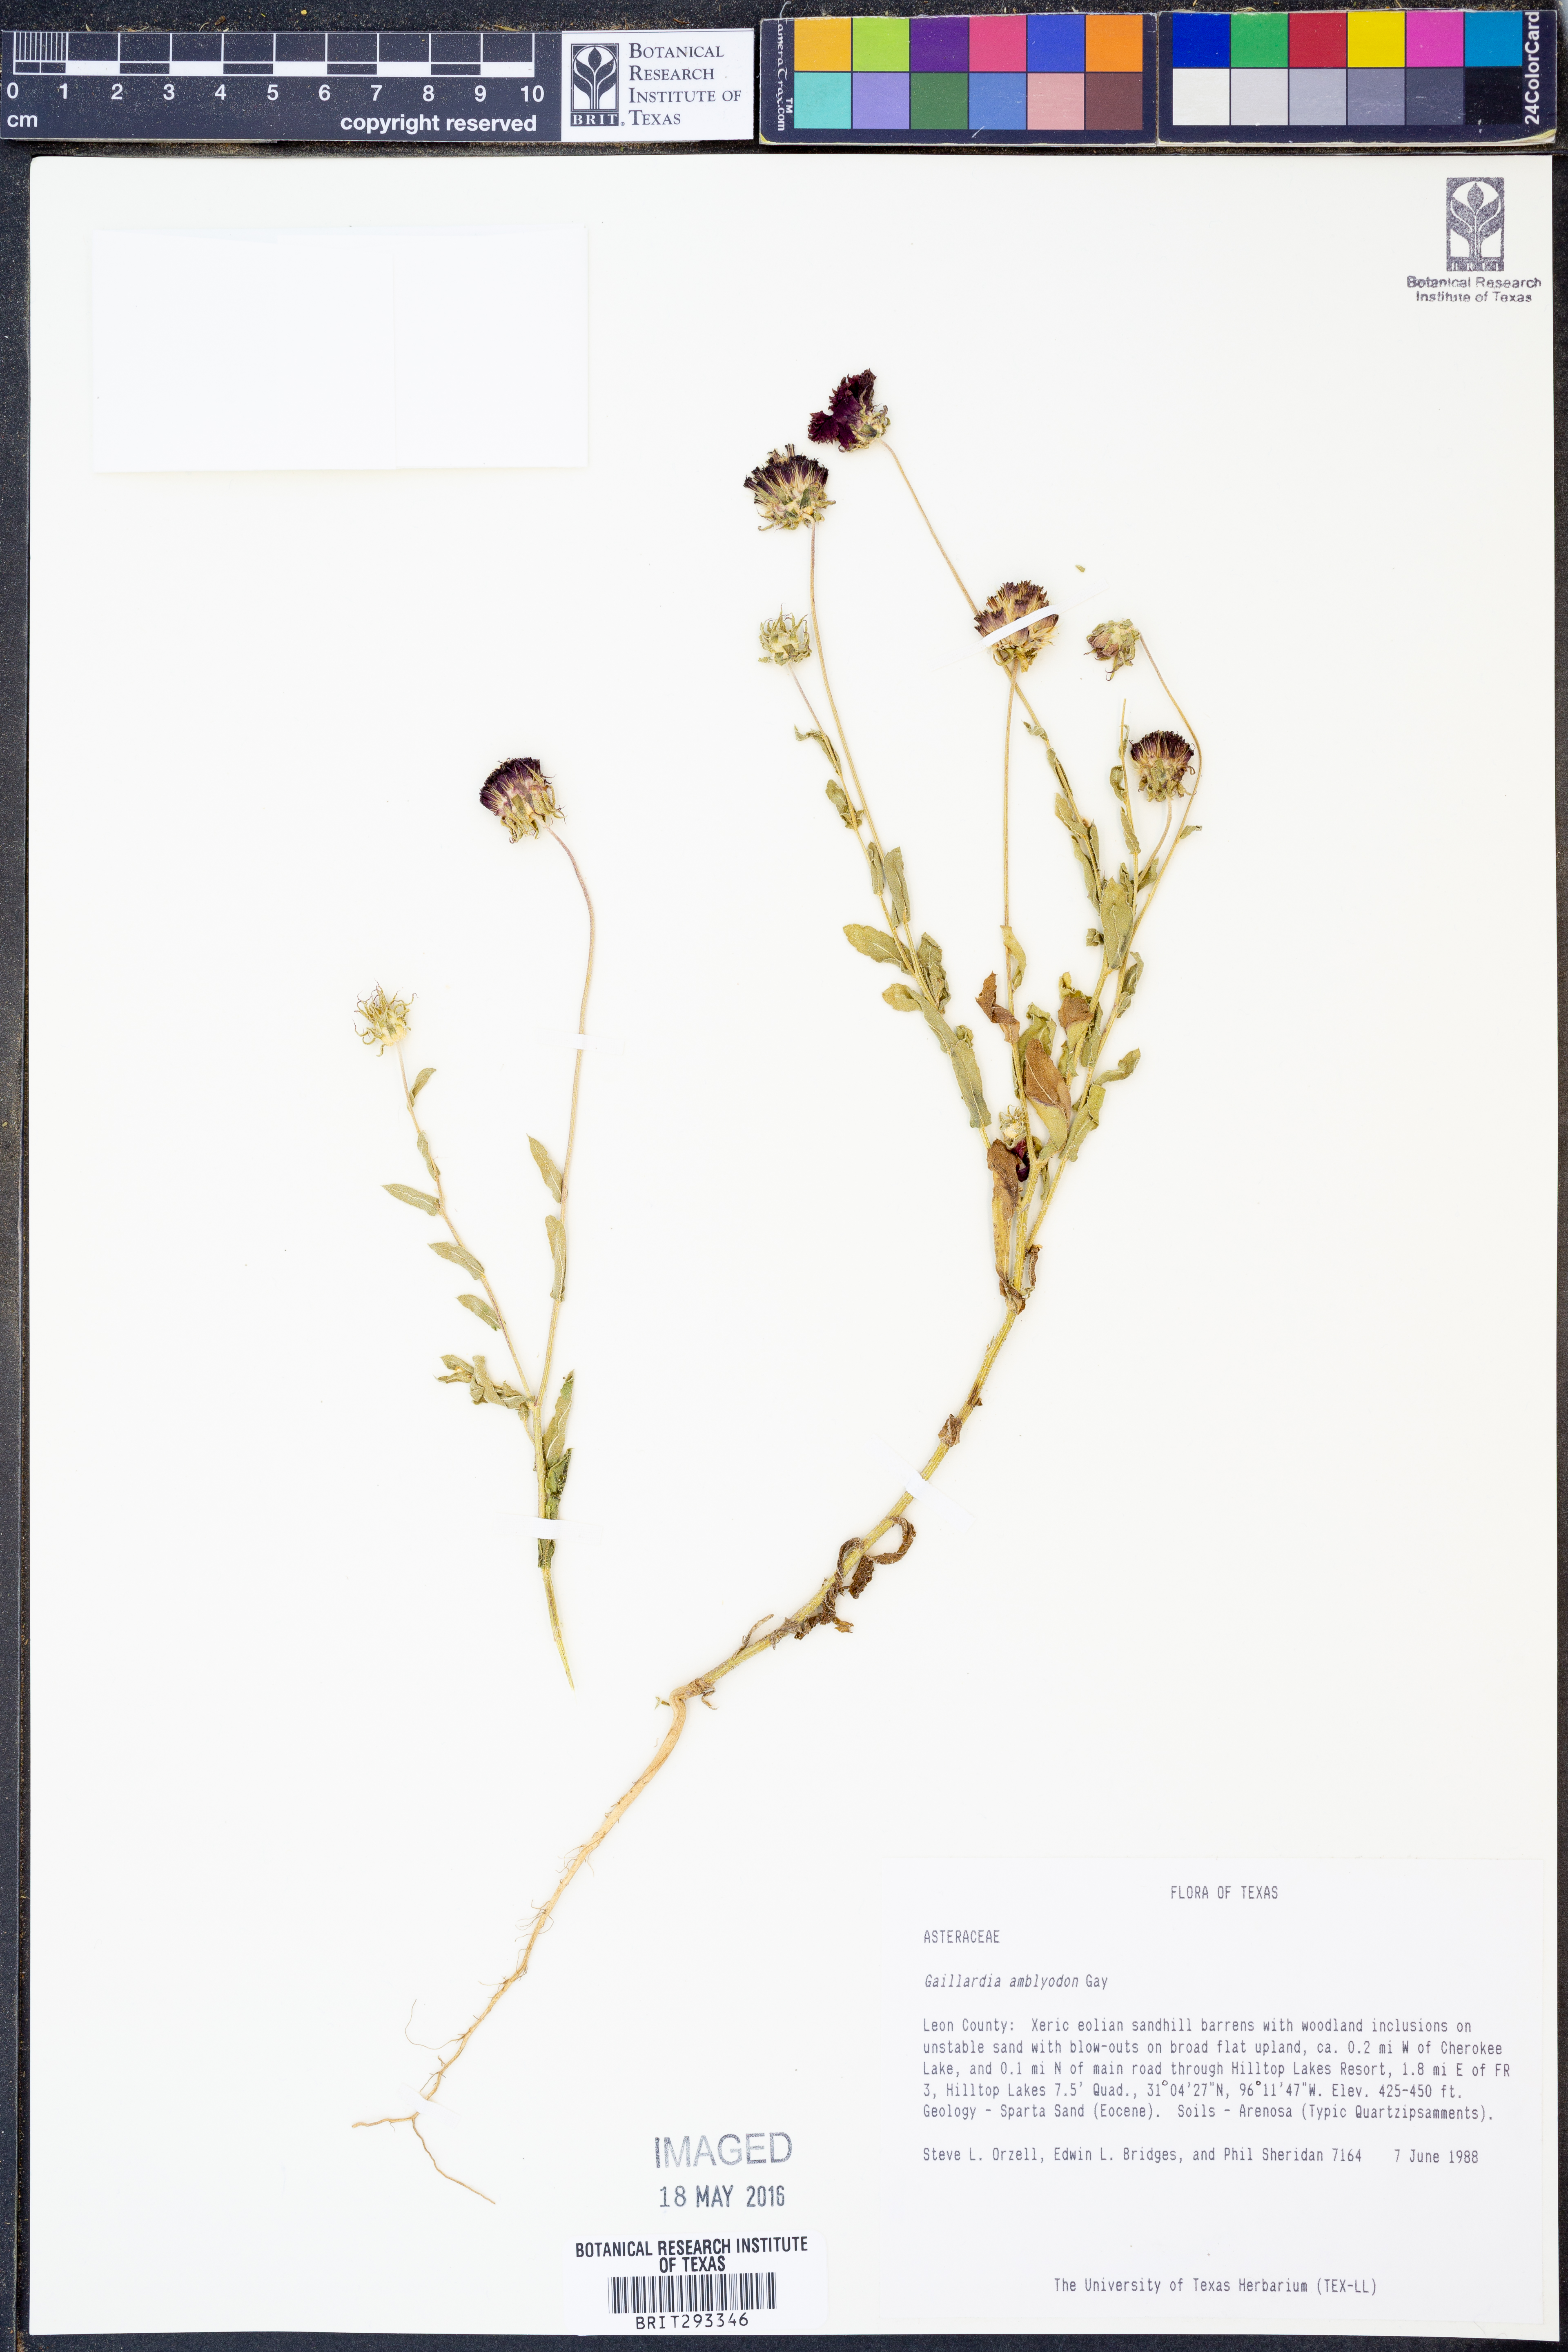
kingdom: Plantae
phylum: Tracheophyta
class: Magnoliopsida
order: Asterales
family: Asteraceae
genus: Gaillardia
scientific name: Gaillardia amblyodon
